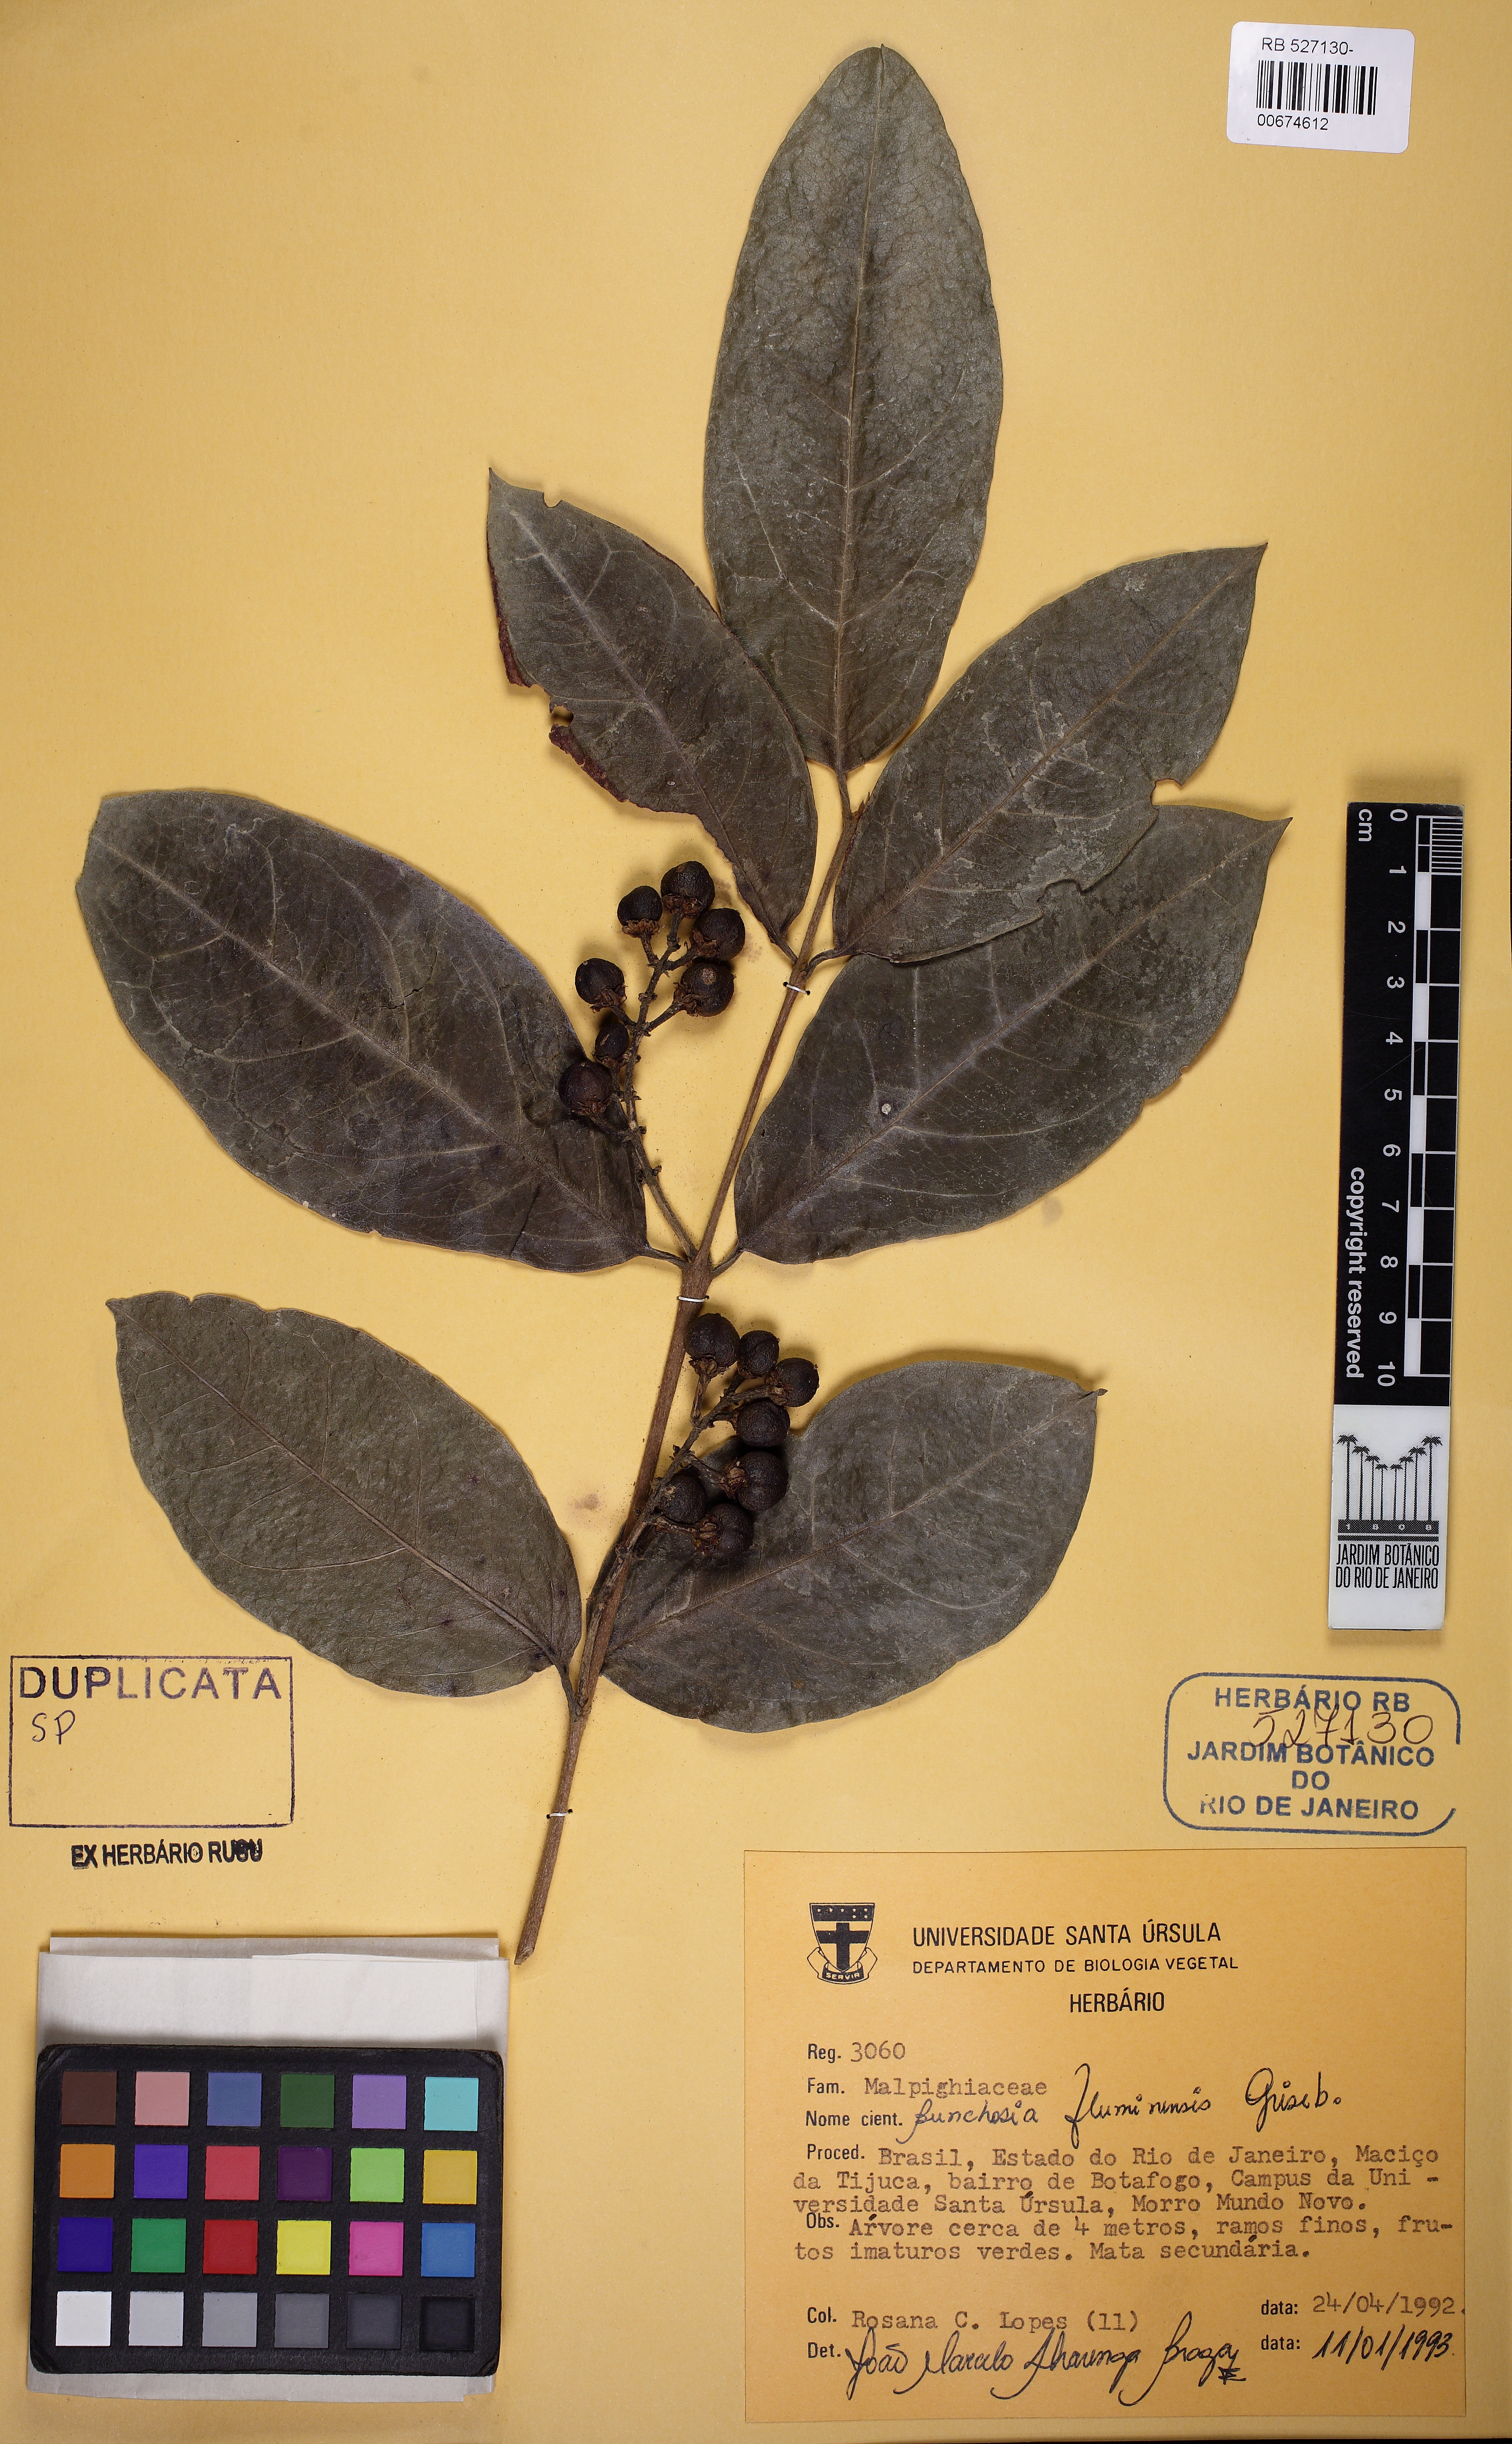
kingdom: Plantae
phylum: Tracheophyta
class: Magnoliopsida
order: Malpighiales
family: Malpighiaceae
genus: Bunchosia
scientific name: Bunchosia maritima
